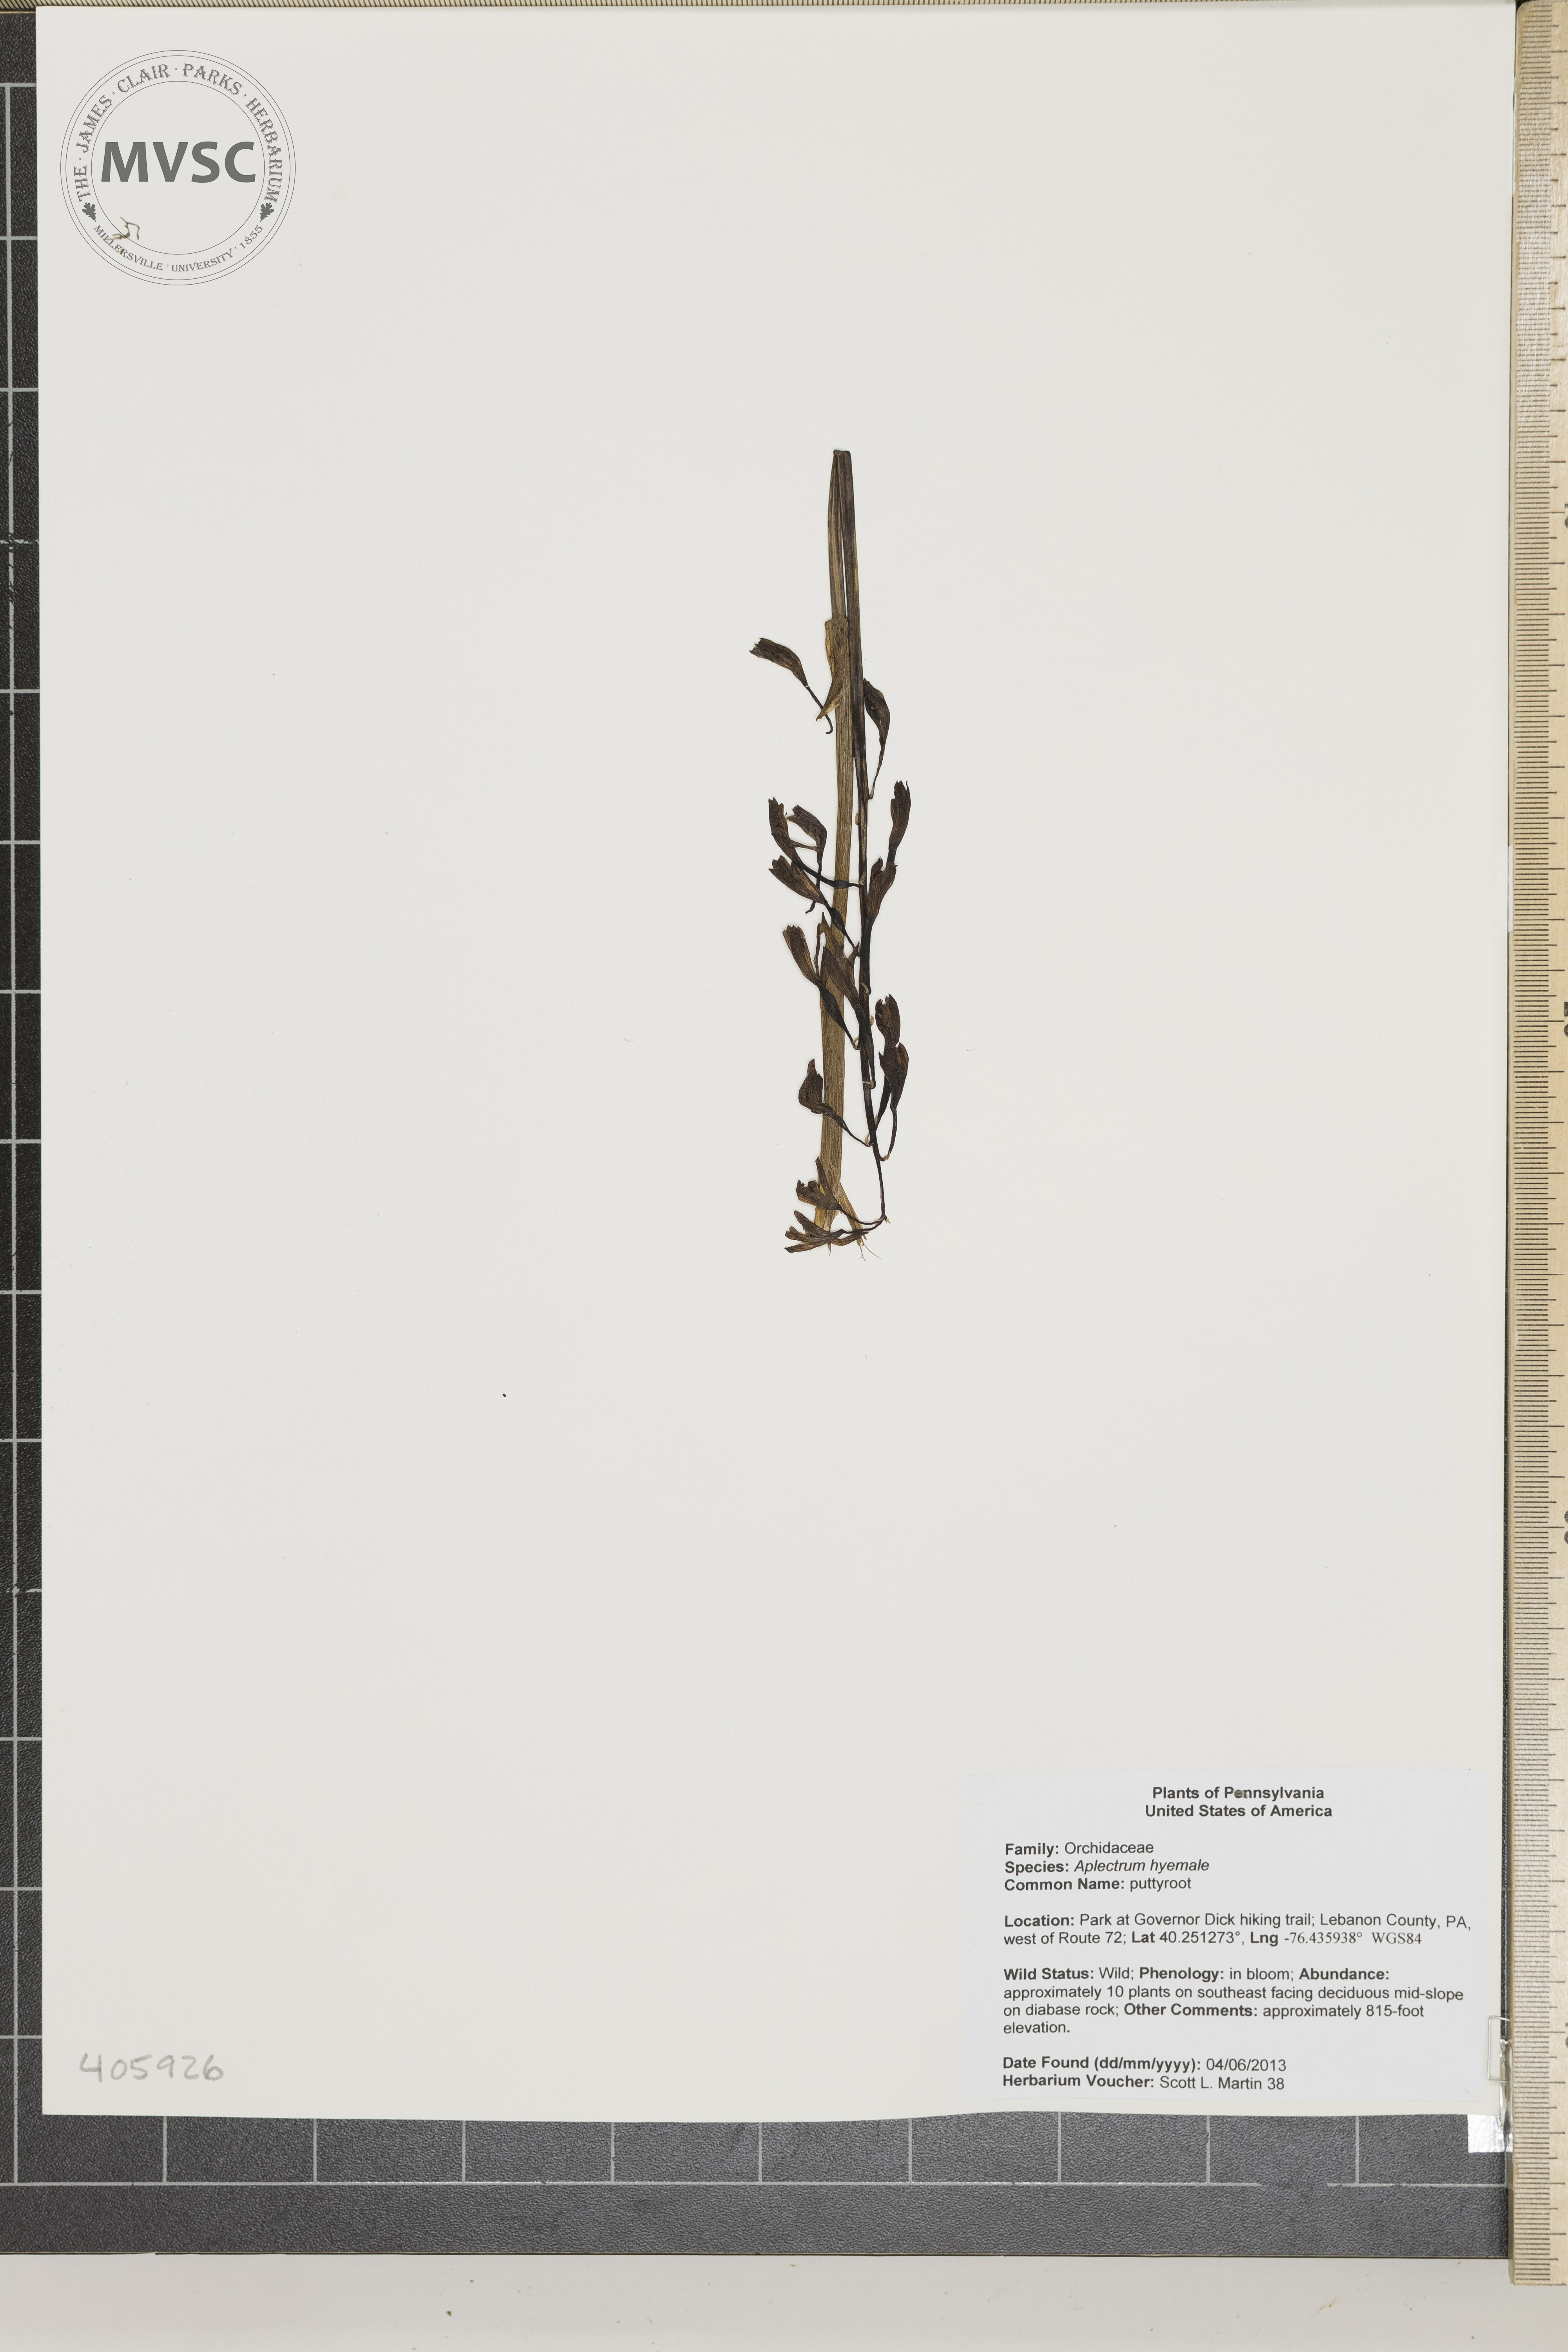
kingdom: Plantae
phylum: Tracheophyta
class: Liliopsida
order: Asparagales
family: Orchidaceae
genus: Aplectrum
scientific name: Aplectrum hyemale
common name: puttyroot
